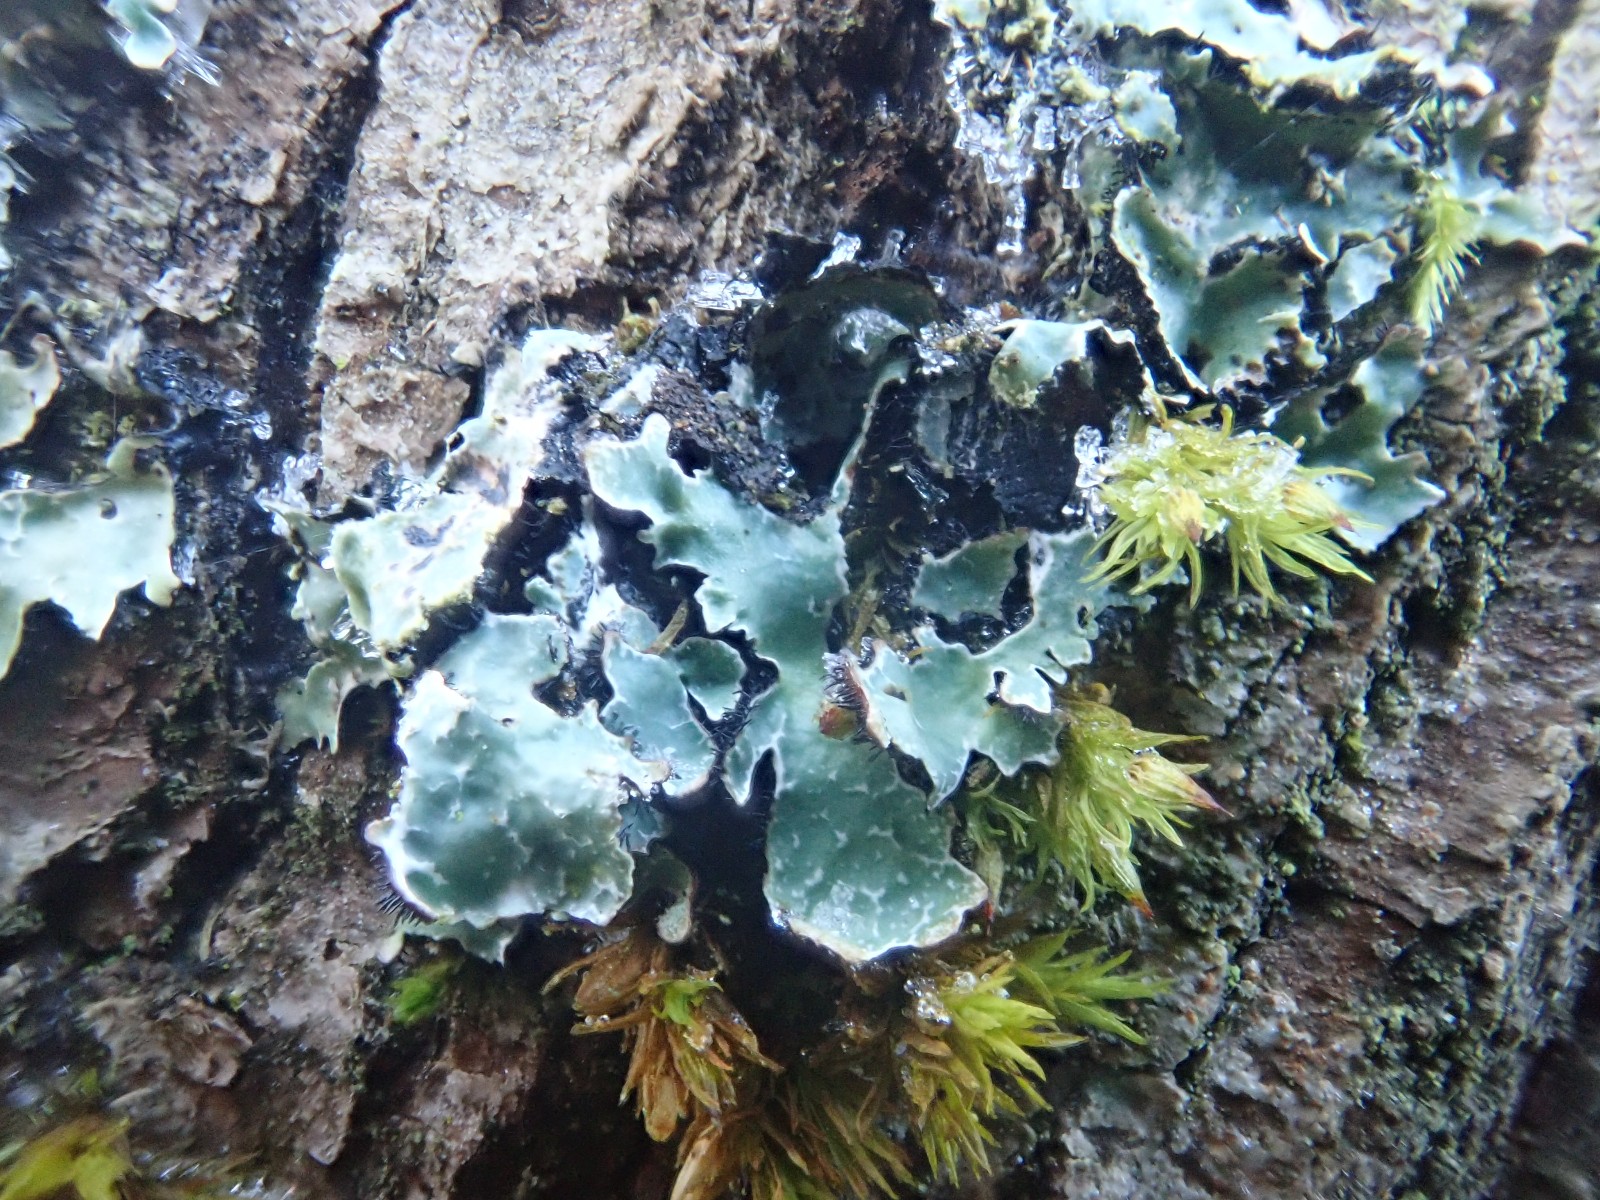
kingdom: Fungi
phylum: Ascomycota
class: Lecanoromycetes
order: Lecanorales
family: Parmeliaceae
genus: Parmelia
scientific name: Parmelia sulcata
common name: rynket skållav
